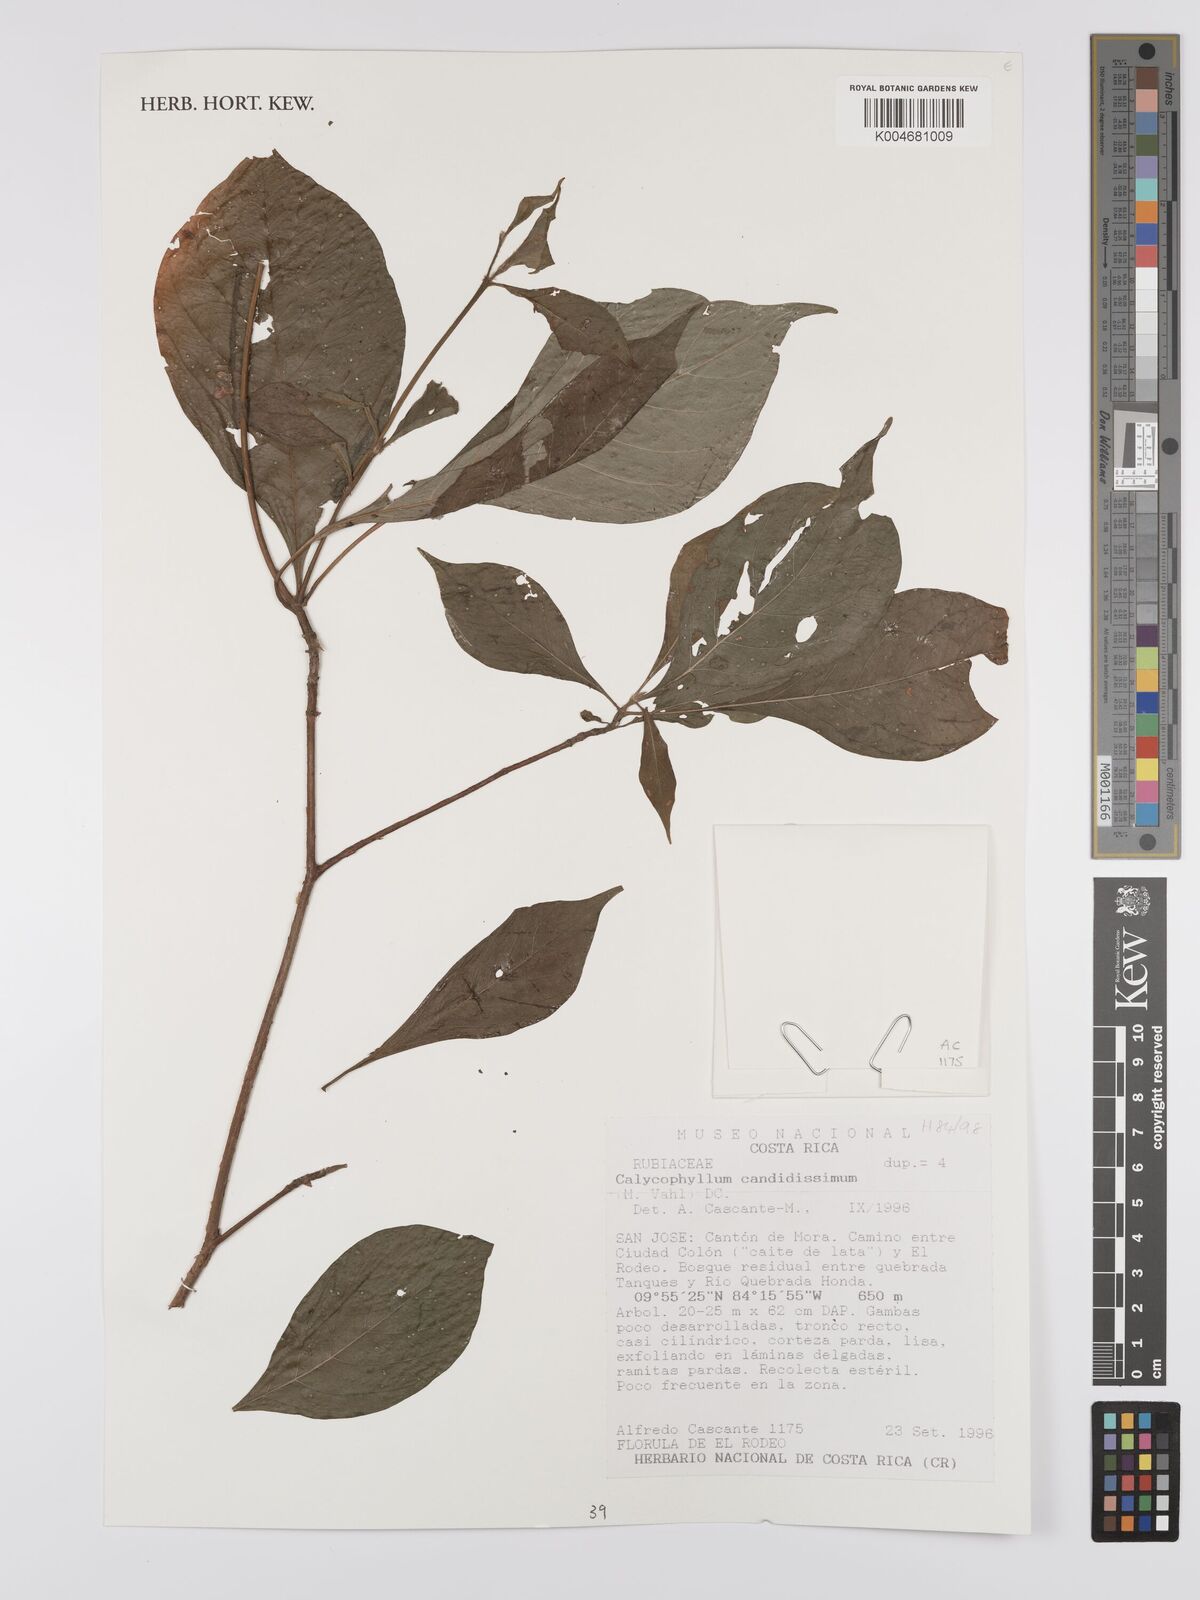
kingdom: Plantae
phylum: Tracheophyta
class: Magnoliopsida
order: Gentianales
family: Rubiaceae
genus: Calycophyllum
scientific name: Calycophyllum candidissimum
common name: Dagame
